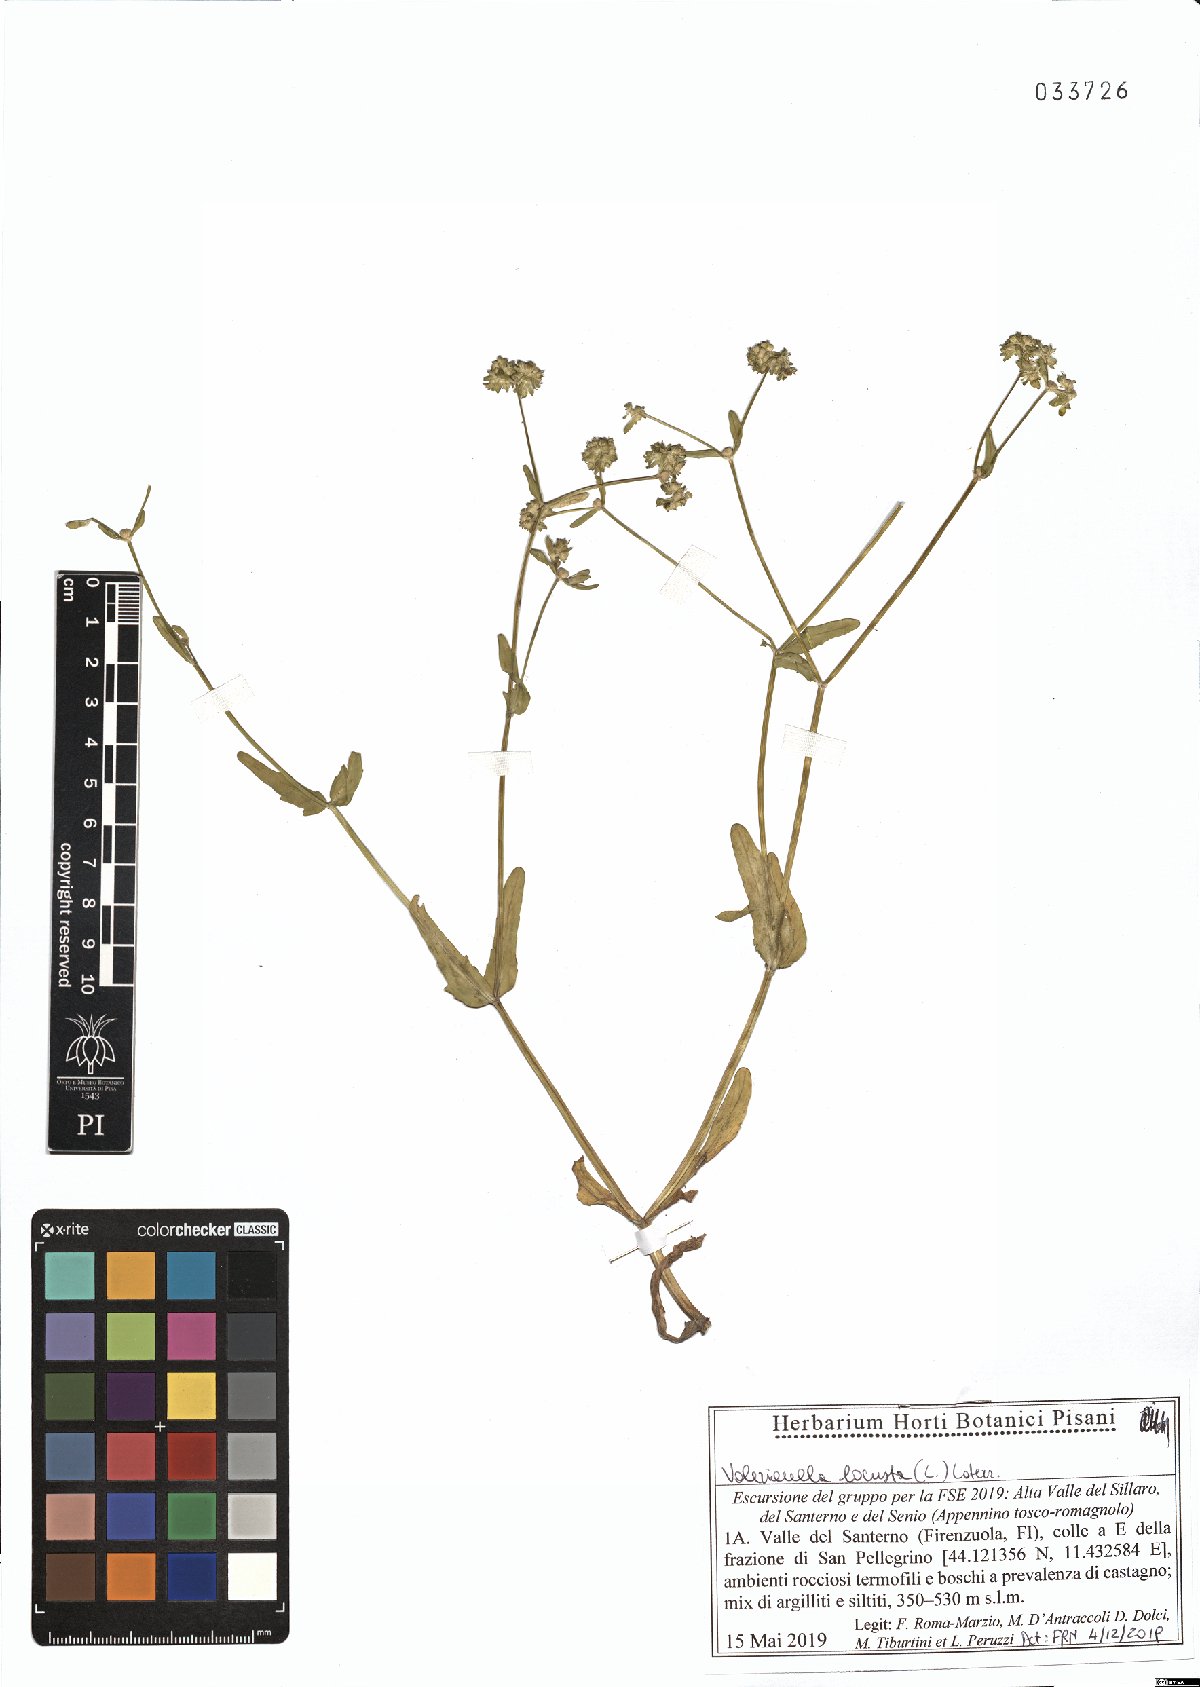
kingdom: Plantae
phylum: Tracheophyta
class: Magnoliopsida
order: Dipsacales
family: Caprifoliaceae
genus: Valerianella
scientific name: Valerianella locusta
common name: Common cornsalad
